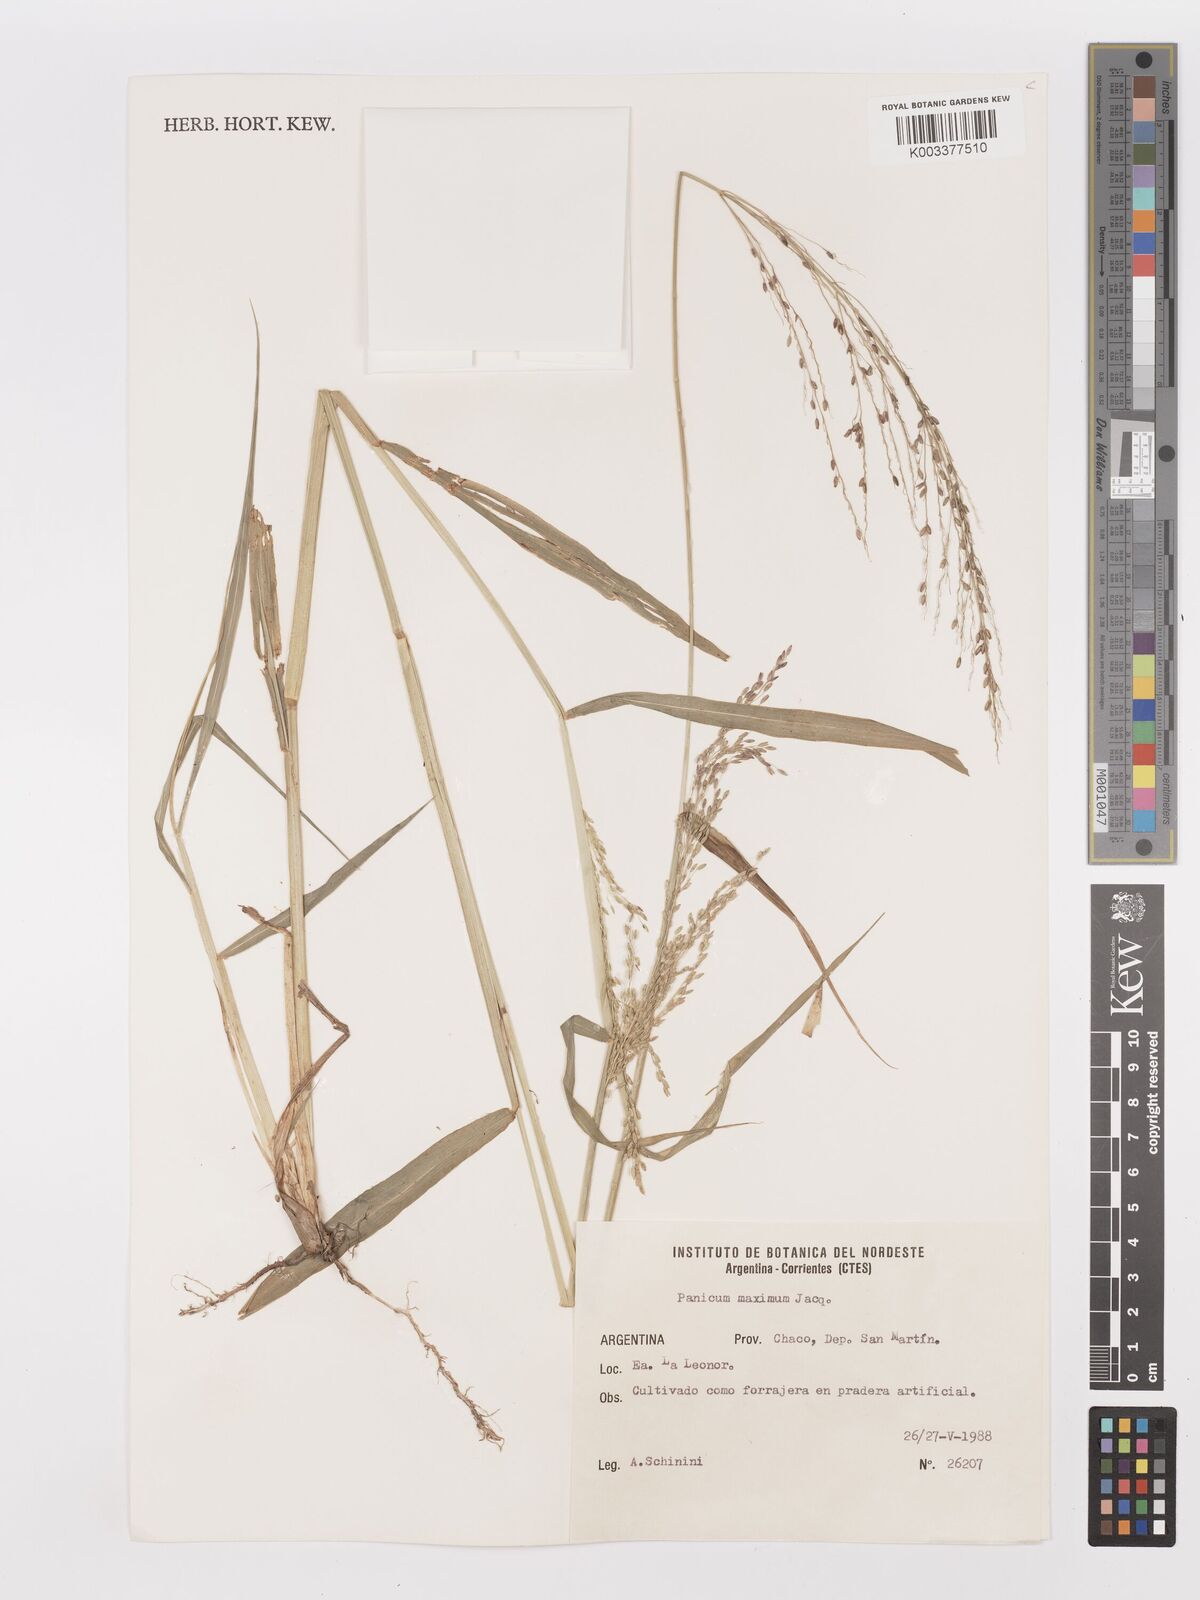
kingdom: Plantae
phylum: Tracheophyta
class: Liliopsida
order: Poales
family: Poaceae
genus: Megathyrsus
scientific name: Megathyrsus maximus
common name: Guineagrass
